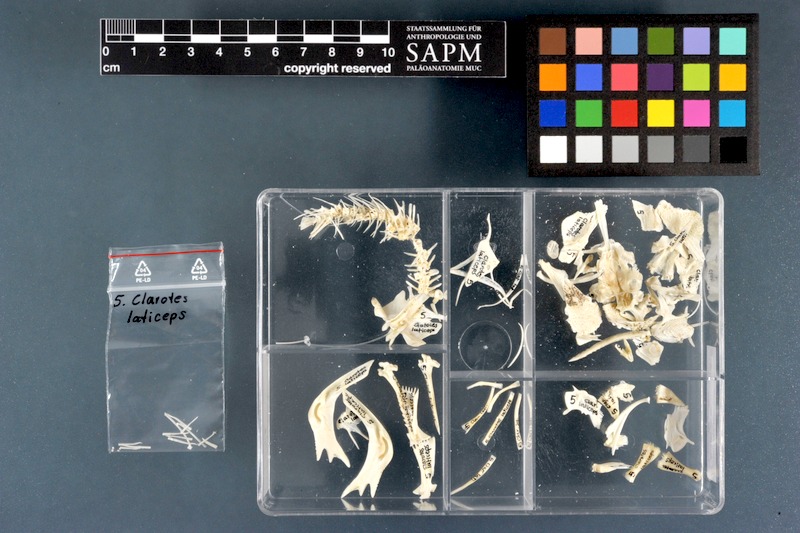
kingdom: Animalia
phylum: Chordata
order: Siluriformes
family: Claroteidae
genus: Clarotes
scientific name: Clarotes laticeps
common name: Spiny catfish
